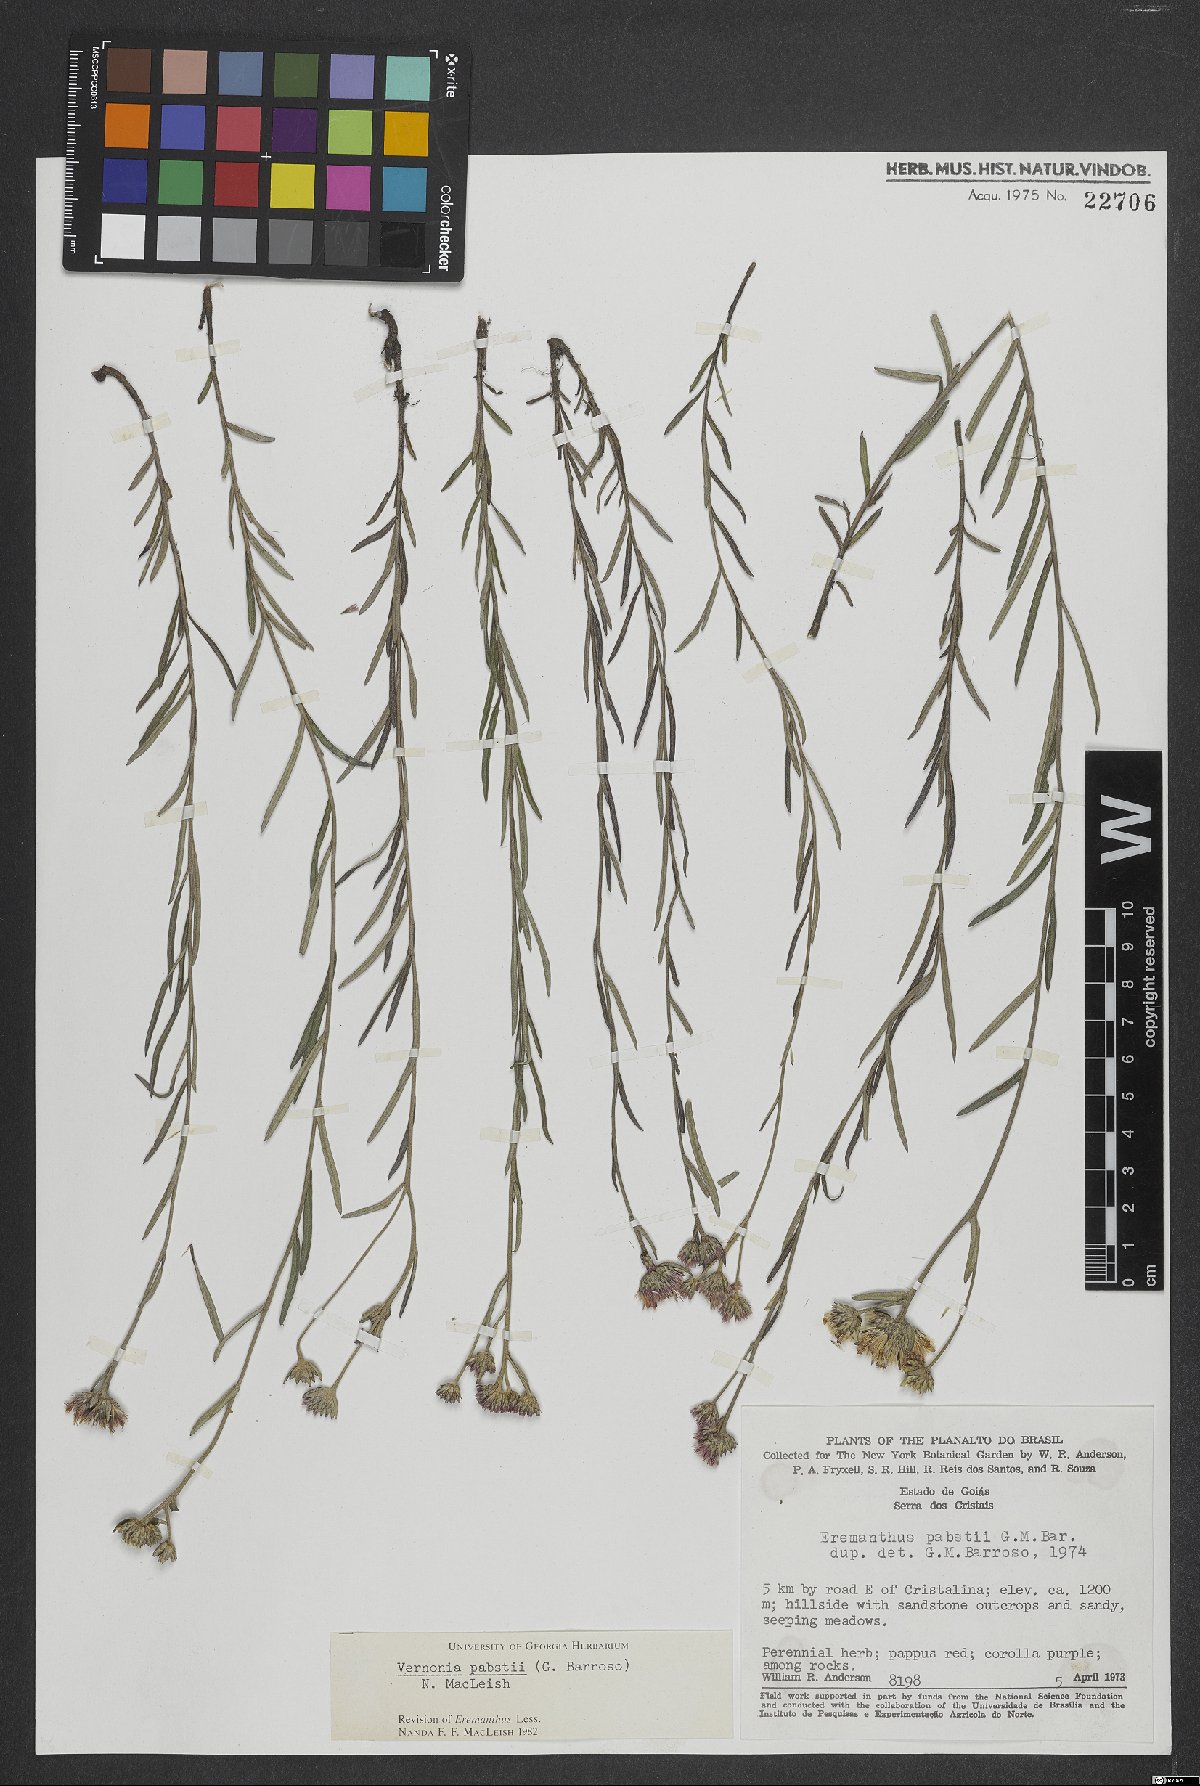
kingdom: Plantae
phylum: Tracheophyta
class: Magnoliopsida
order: Asterales
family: Asteraceae
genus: Piptolepis
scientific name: Piptolepis pabstii
